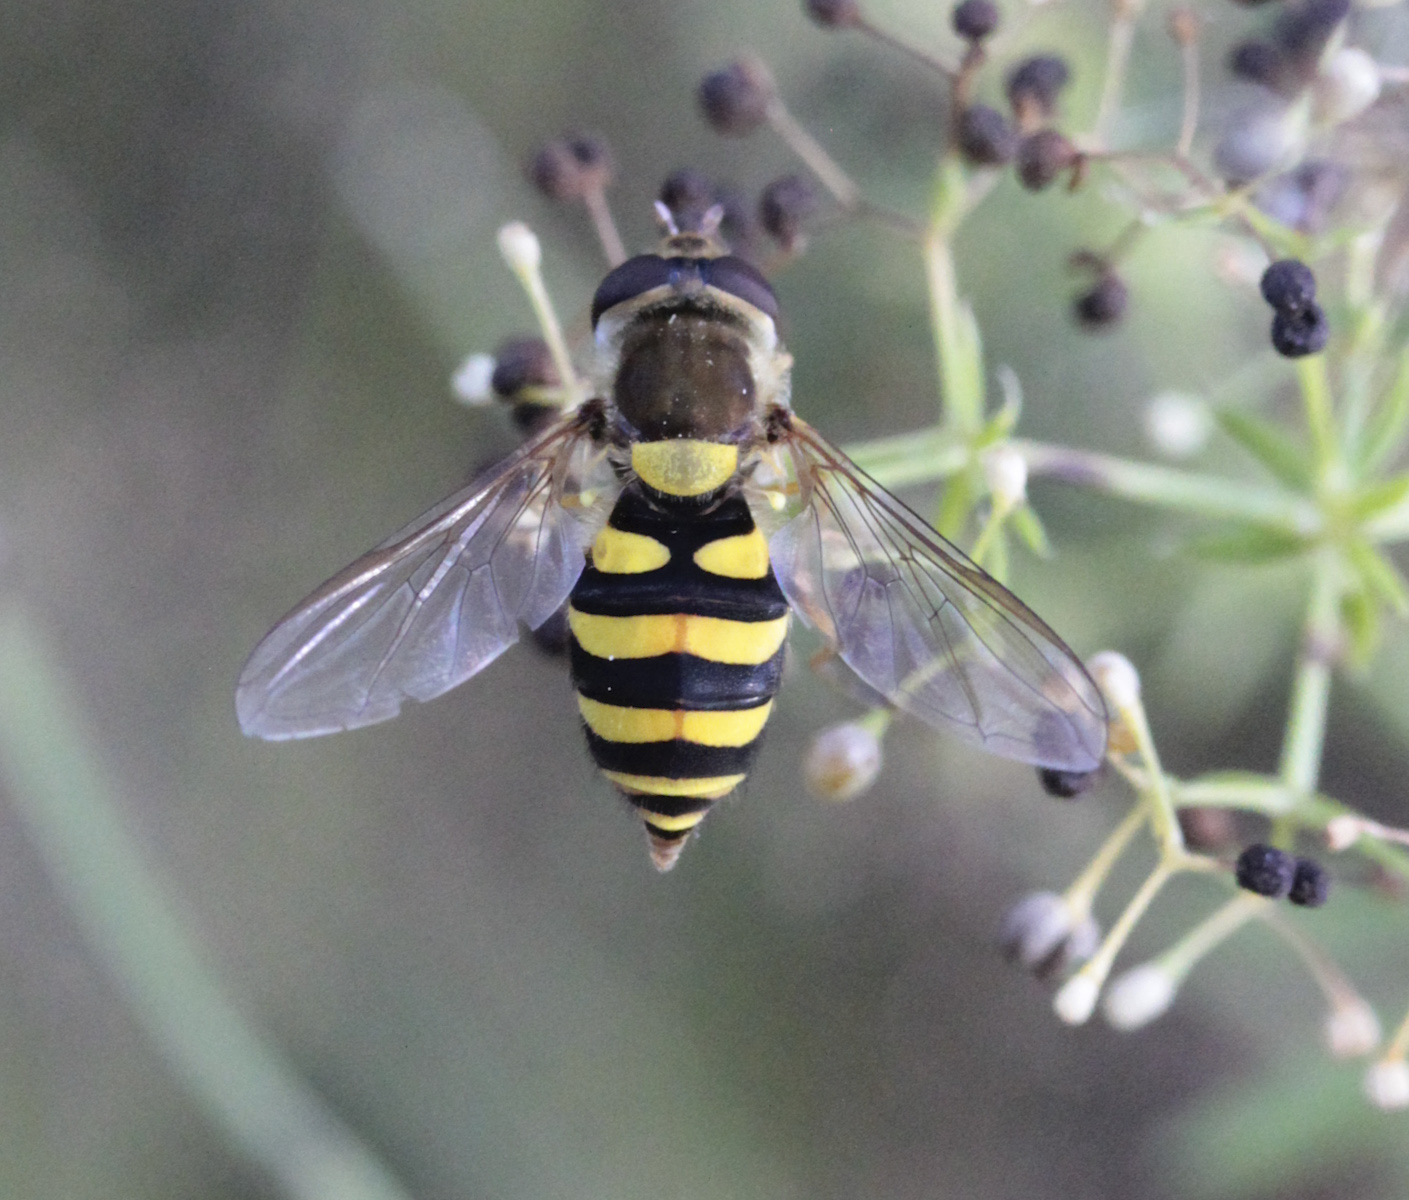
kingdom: Animalia
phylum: Arthropoda
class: Insecta
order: Diptera
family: Syrphidae
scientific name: Syrphidae
